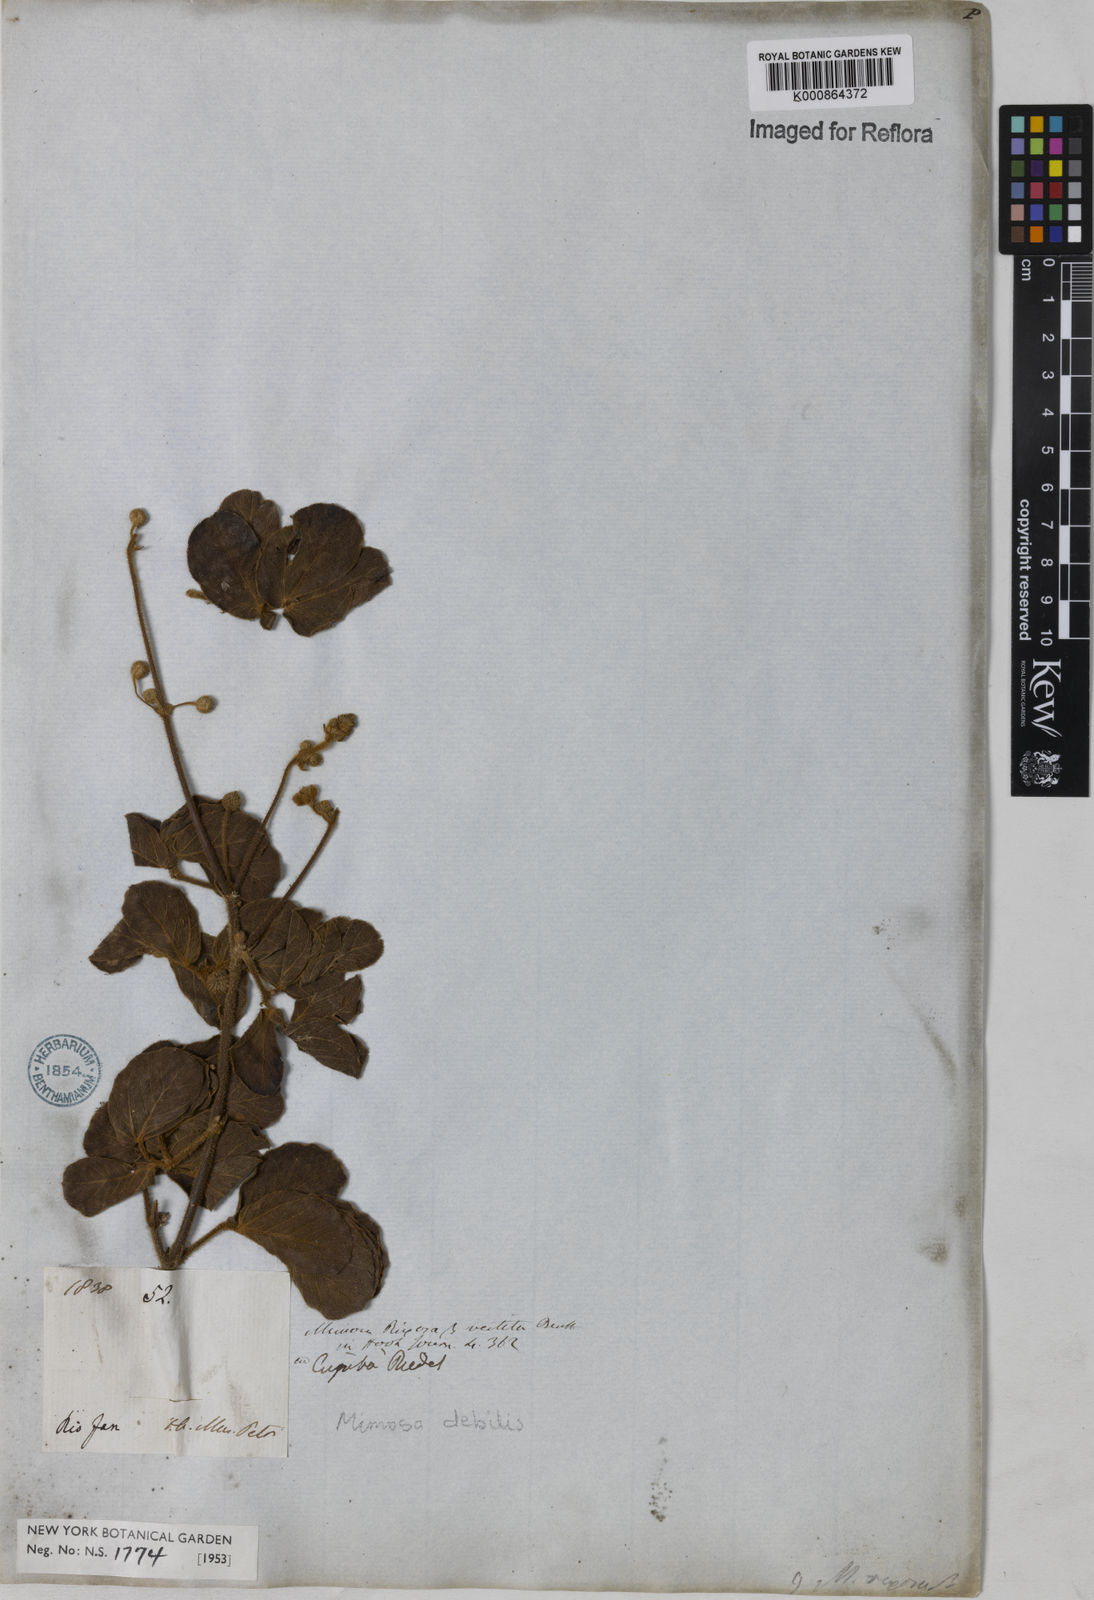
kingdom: Plantae
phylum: Tracheophyta
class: Magnoliopsida
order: Fabales
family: Fabaceae
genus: Mimosa
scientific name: Mimosa
